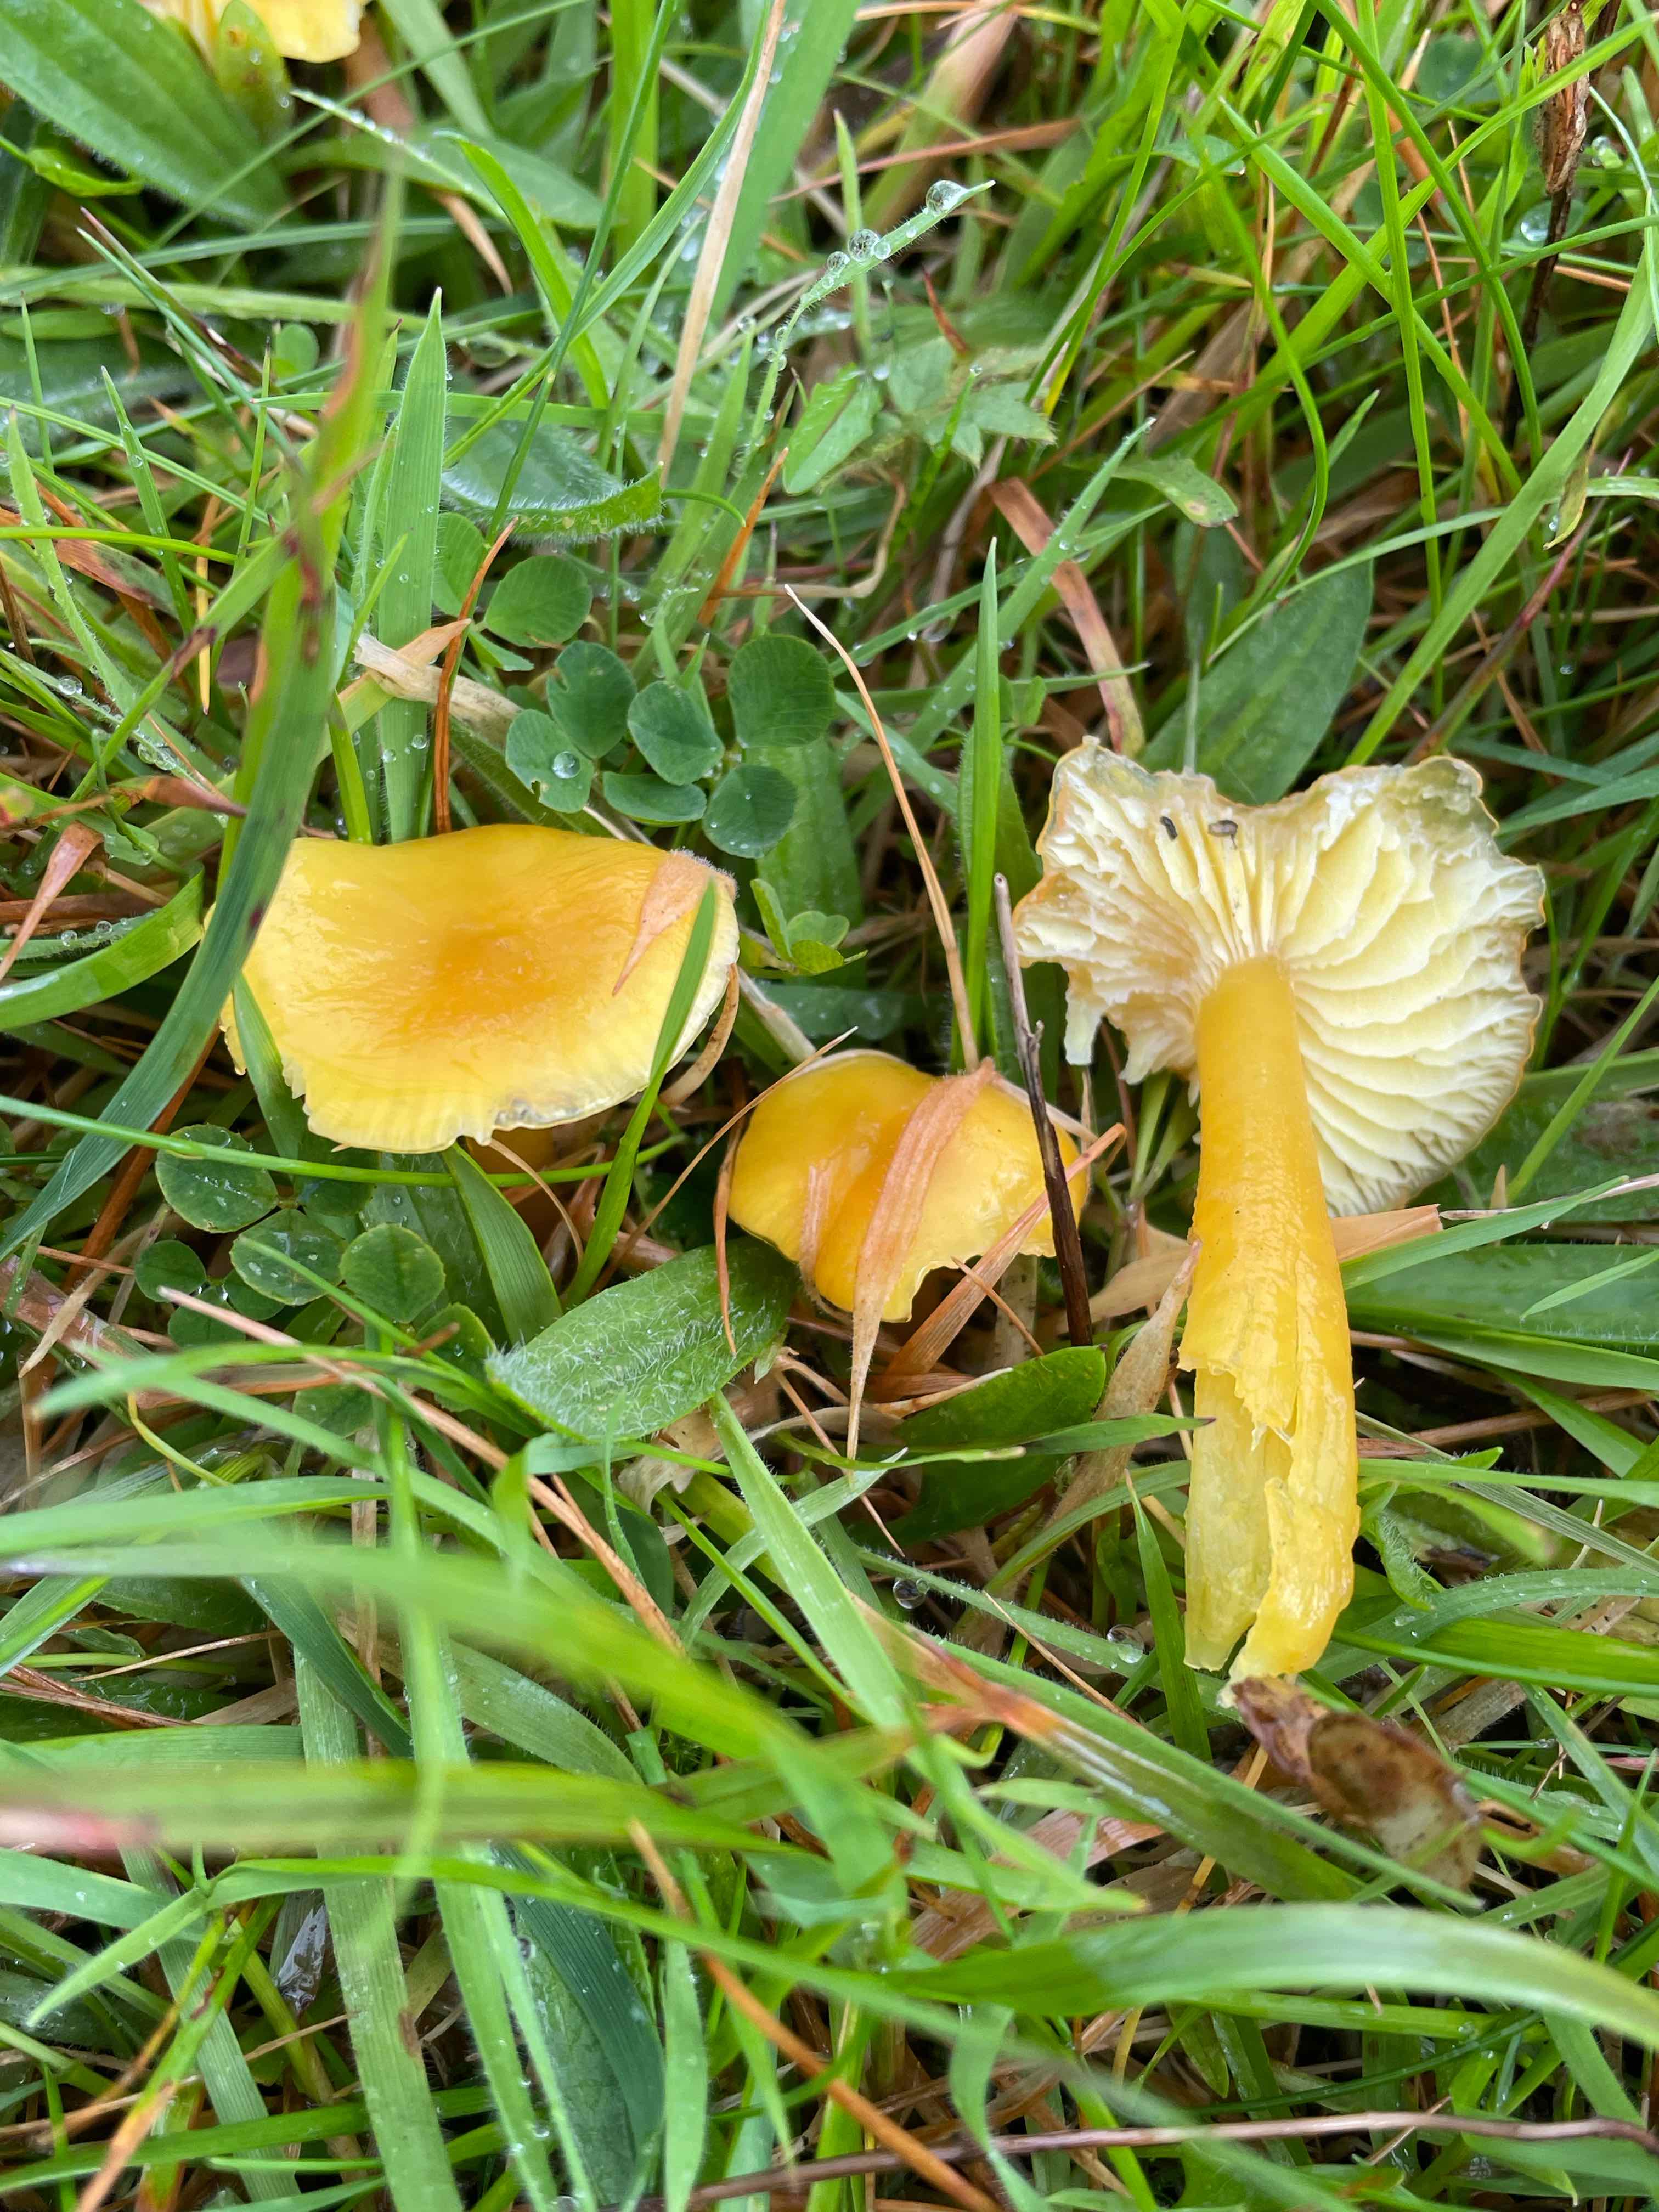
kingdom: Fungi
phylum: Basidiomycota
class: Agaricomycetes
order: Agaricales
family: Hygrophoraceae
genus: Hygrocybe
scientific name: Hygrocybe chlorophana
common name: gul vokshat
